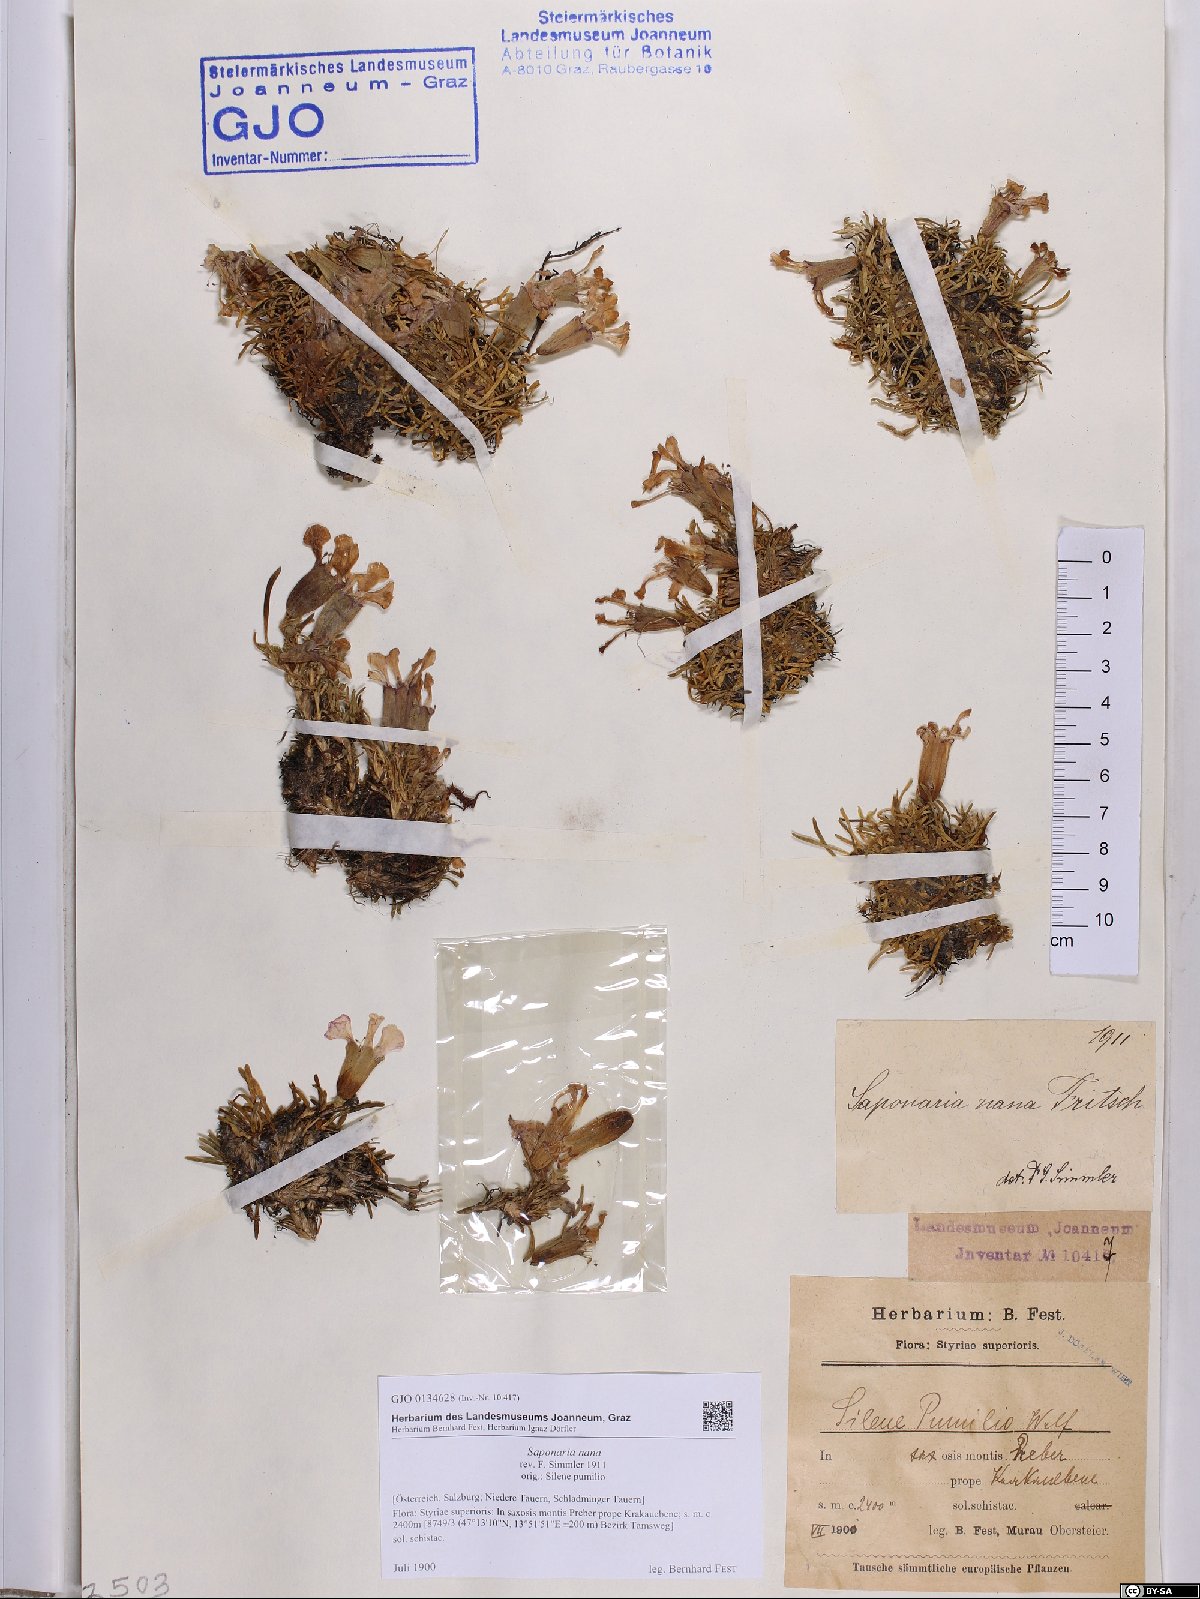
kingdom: Plantae
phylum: Tracheophyta
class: Magnoliopsida
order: Caryophyllales
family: Caryophyllaceae
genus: Saponaria
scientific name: Saponaria pumila
